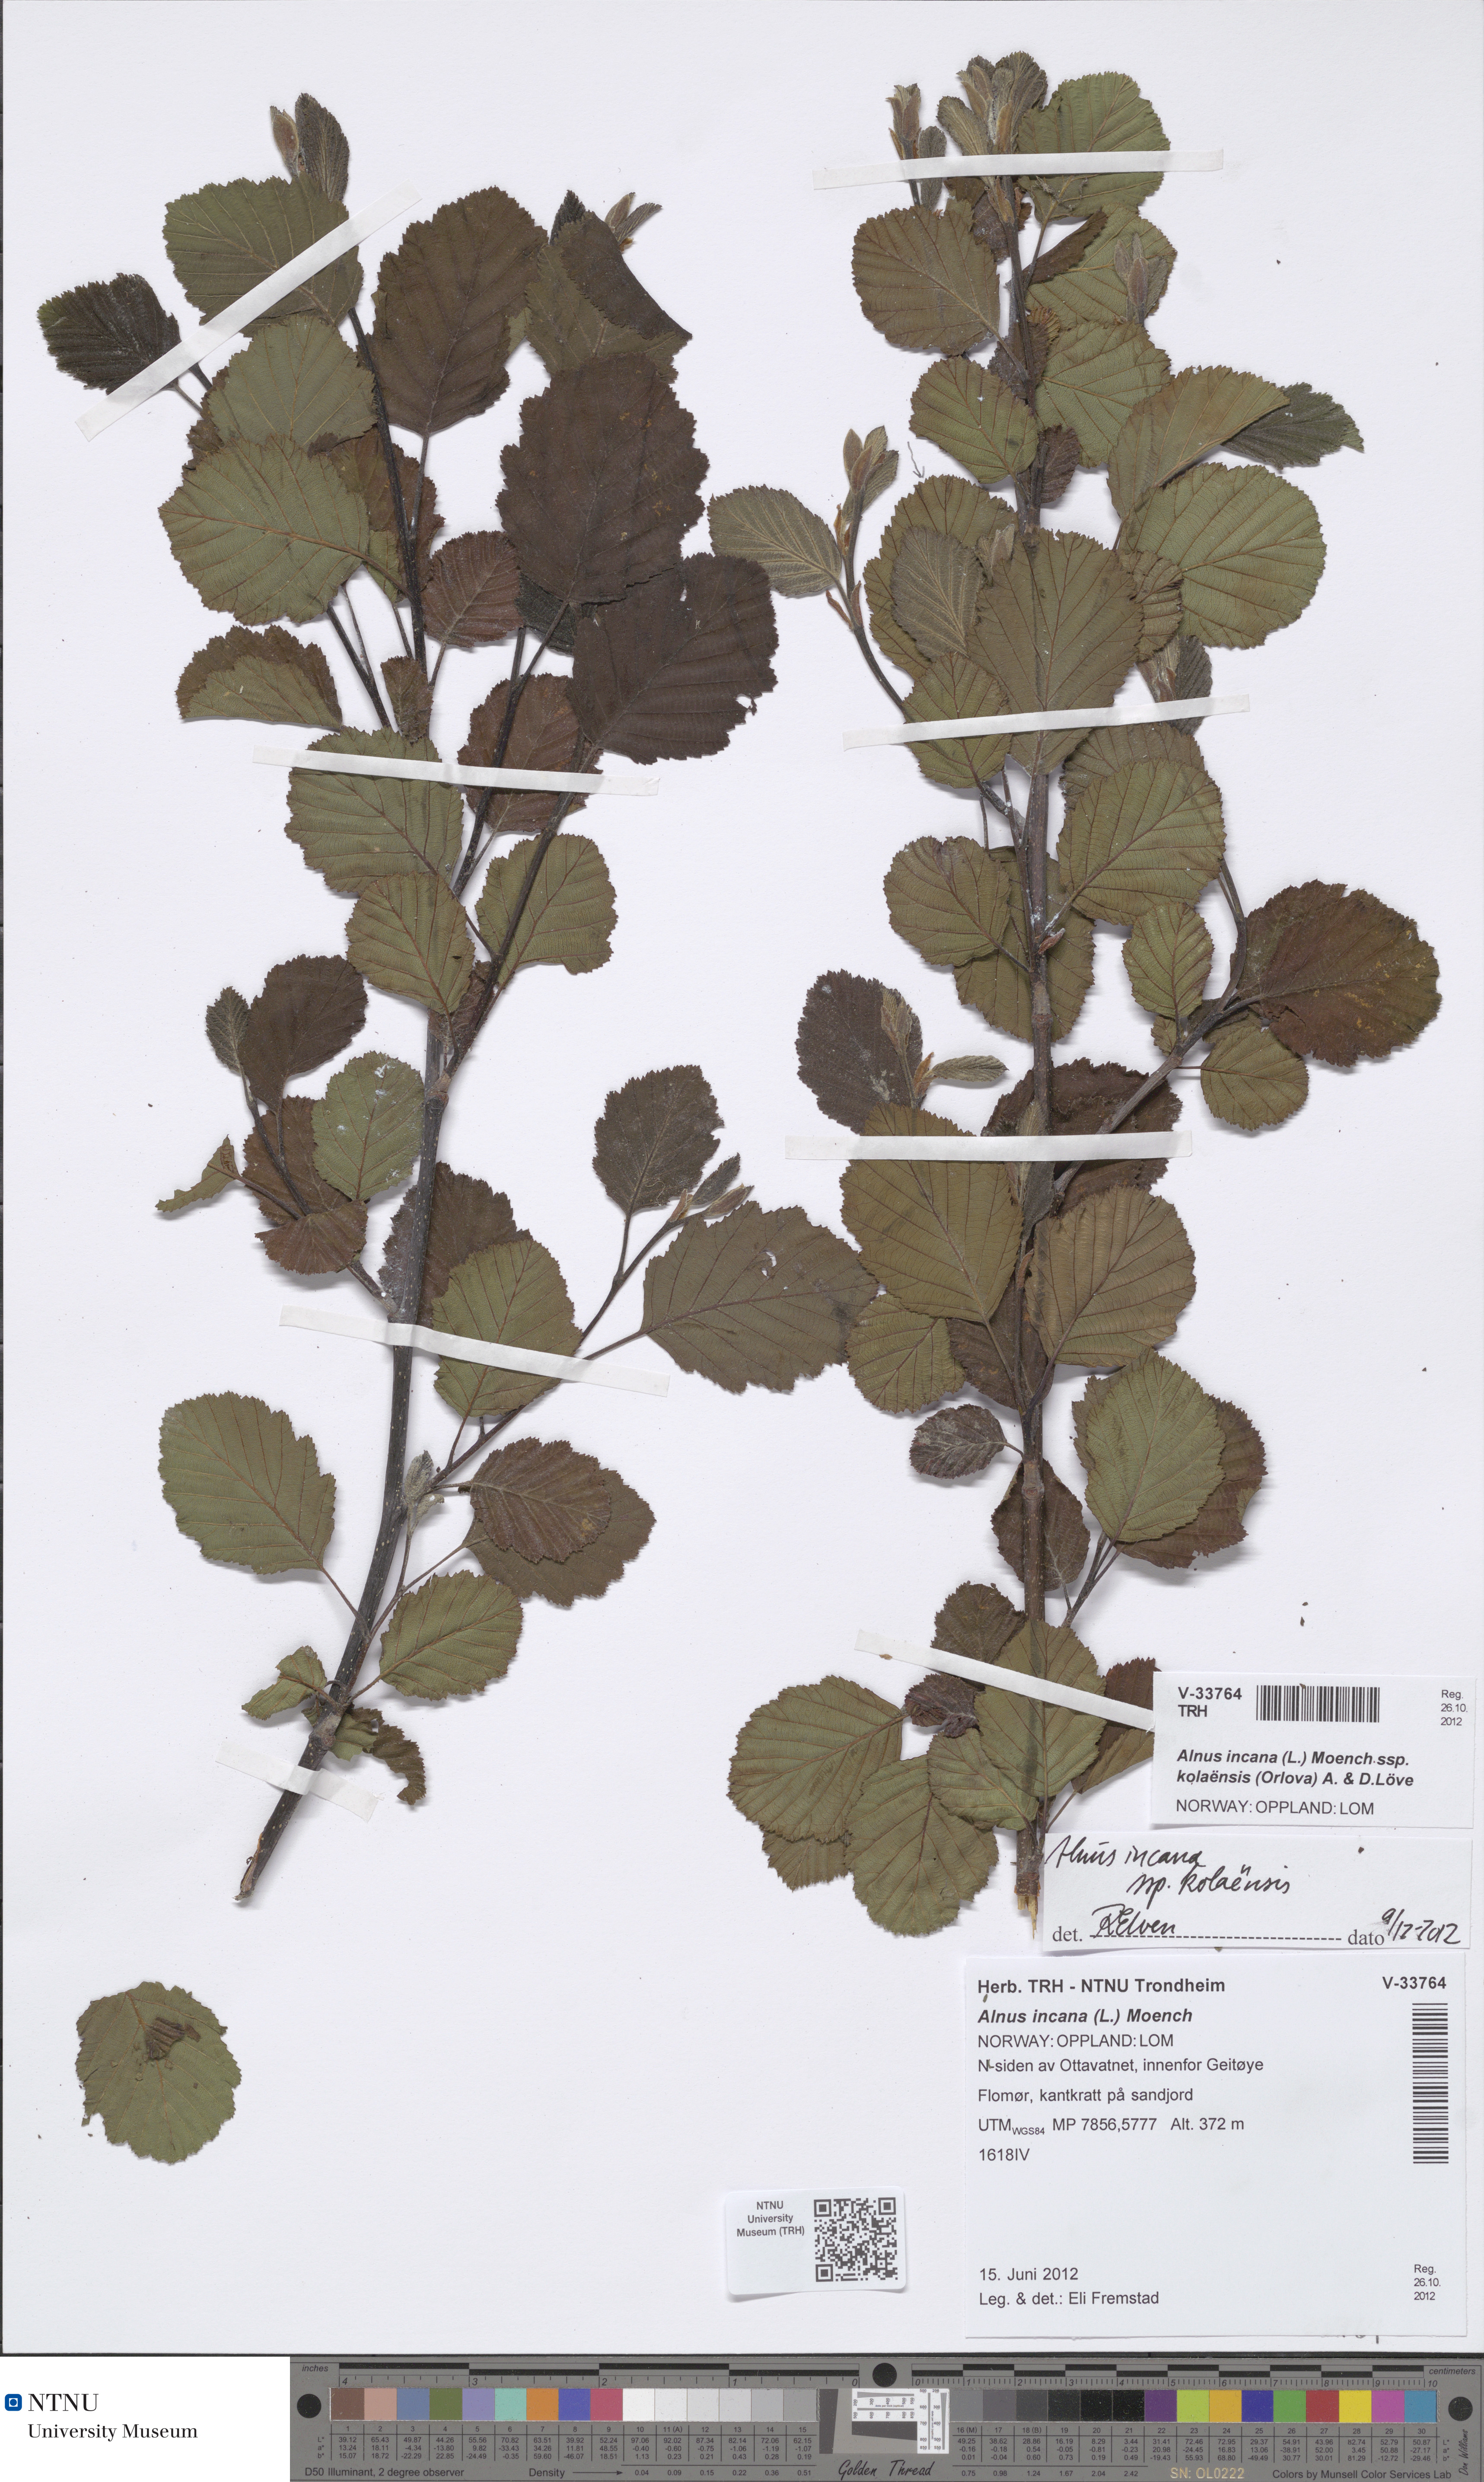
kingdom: Plantae
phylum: Tracheophyta
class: Magnoliopsida
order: Fagales
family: Betulaceae
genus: Alnus
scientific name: Alnus incana
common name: Grey alder
